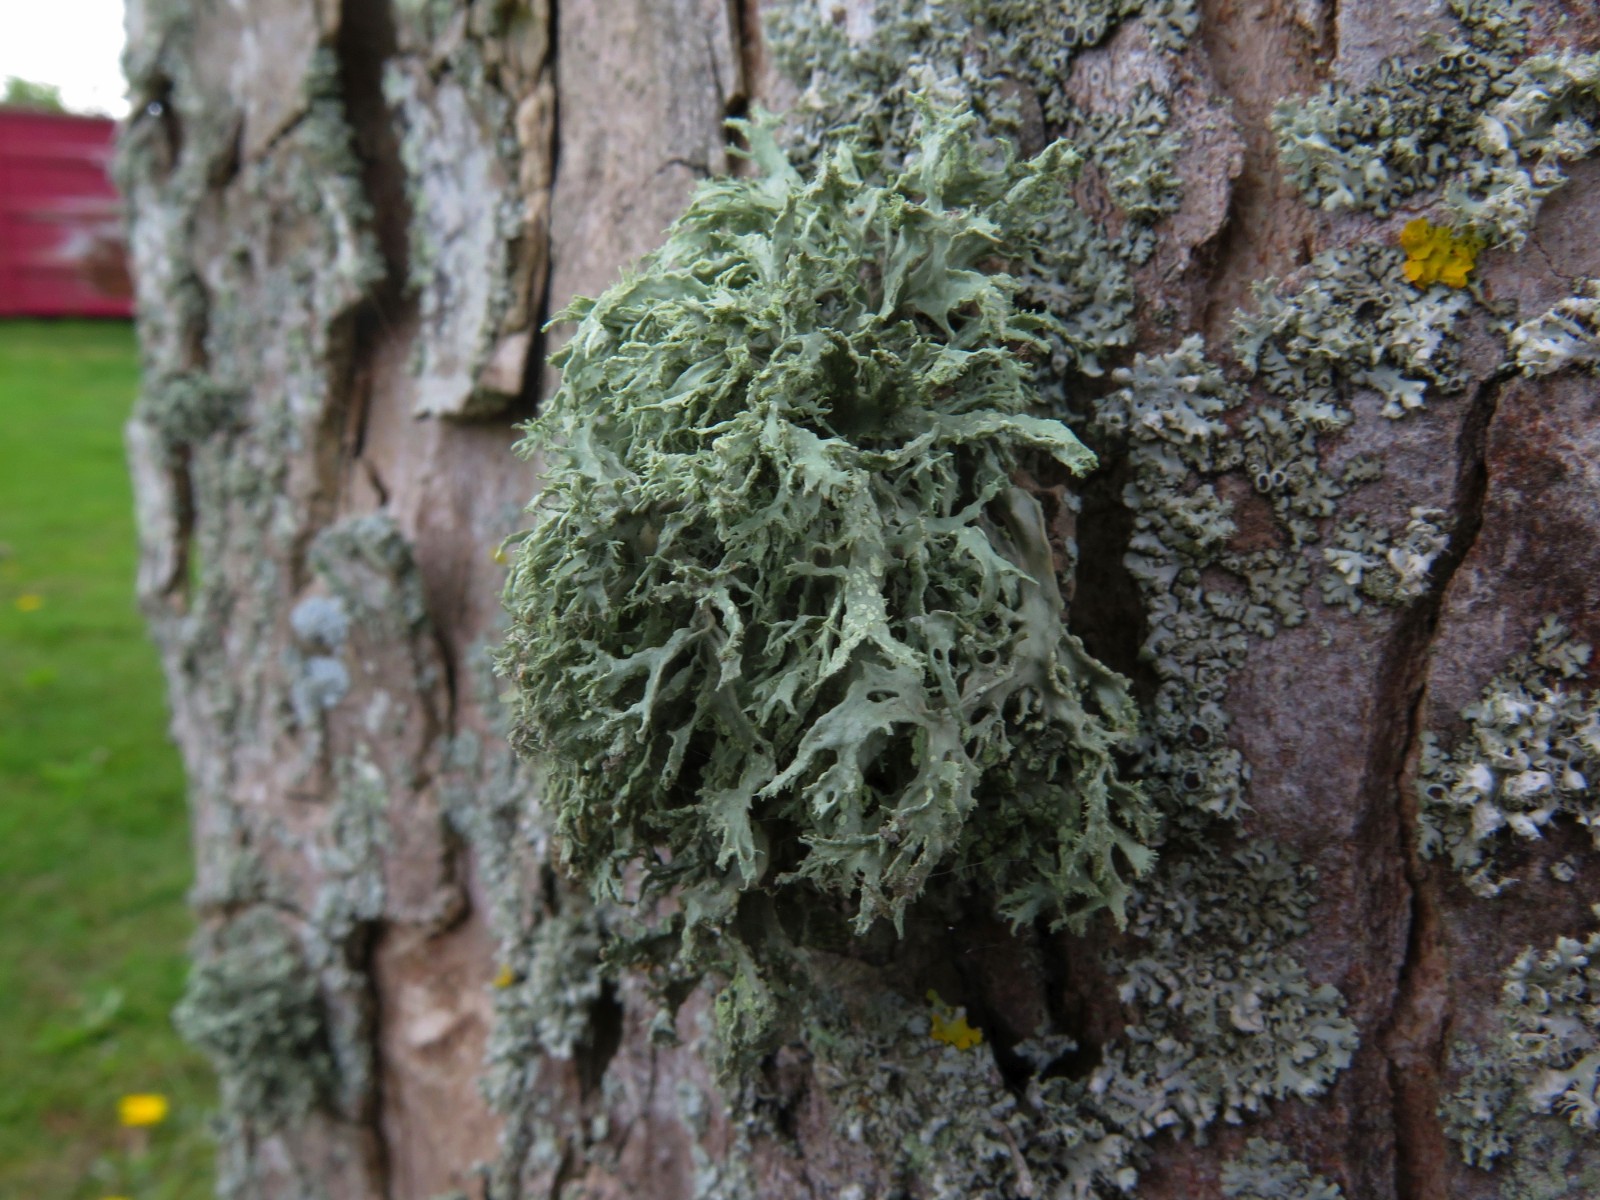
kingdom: Fungi
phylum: Ascomycota
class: Lecanoromycetes
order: Lecanorales
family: Ramalinaceae
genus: Ramalina
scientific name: Ramalina farinacea
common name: melet grenlav
